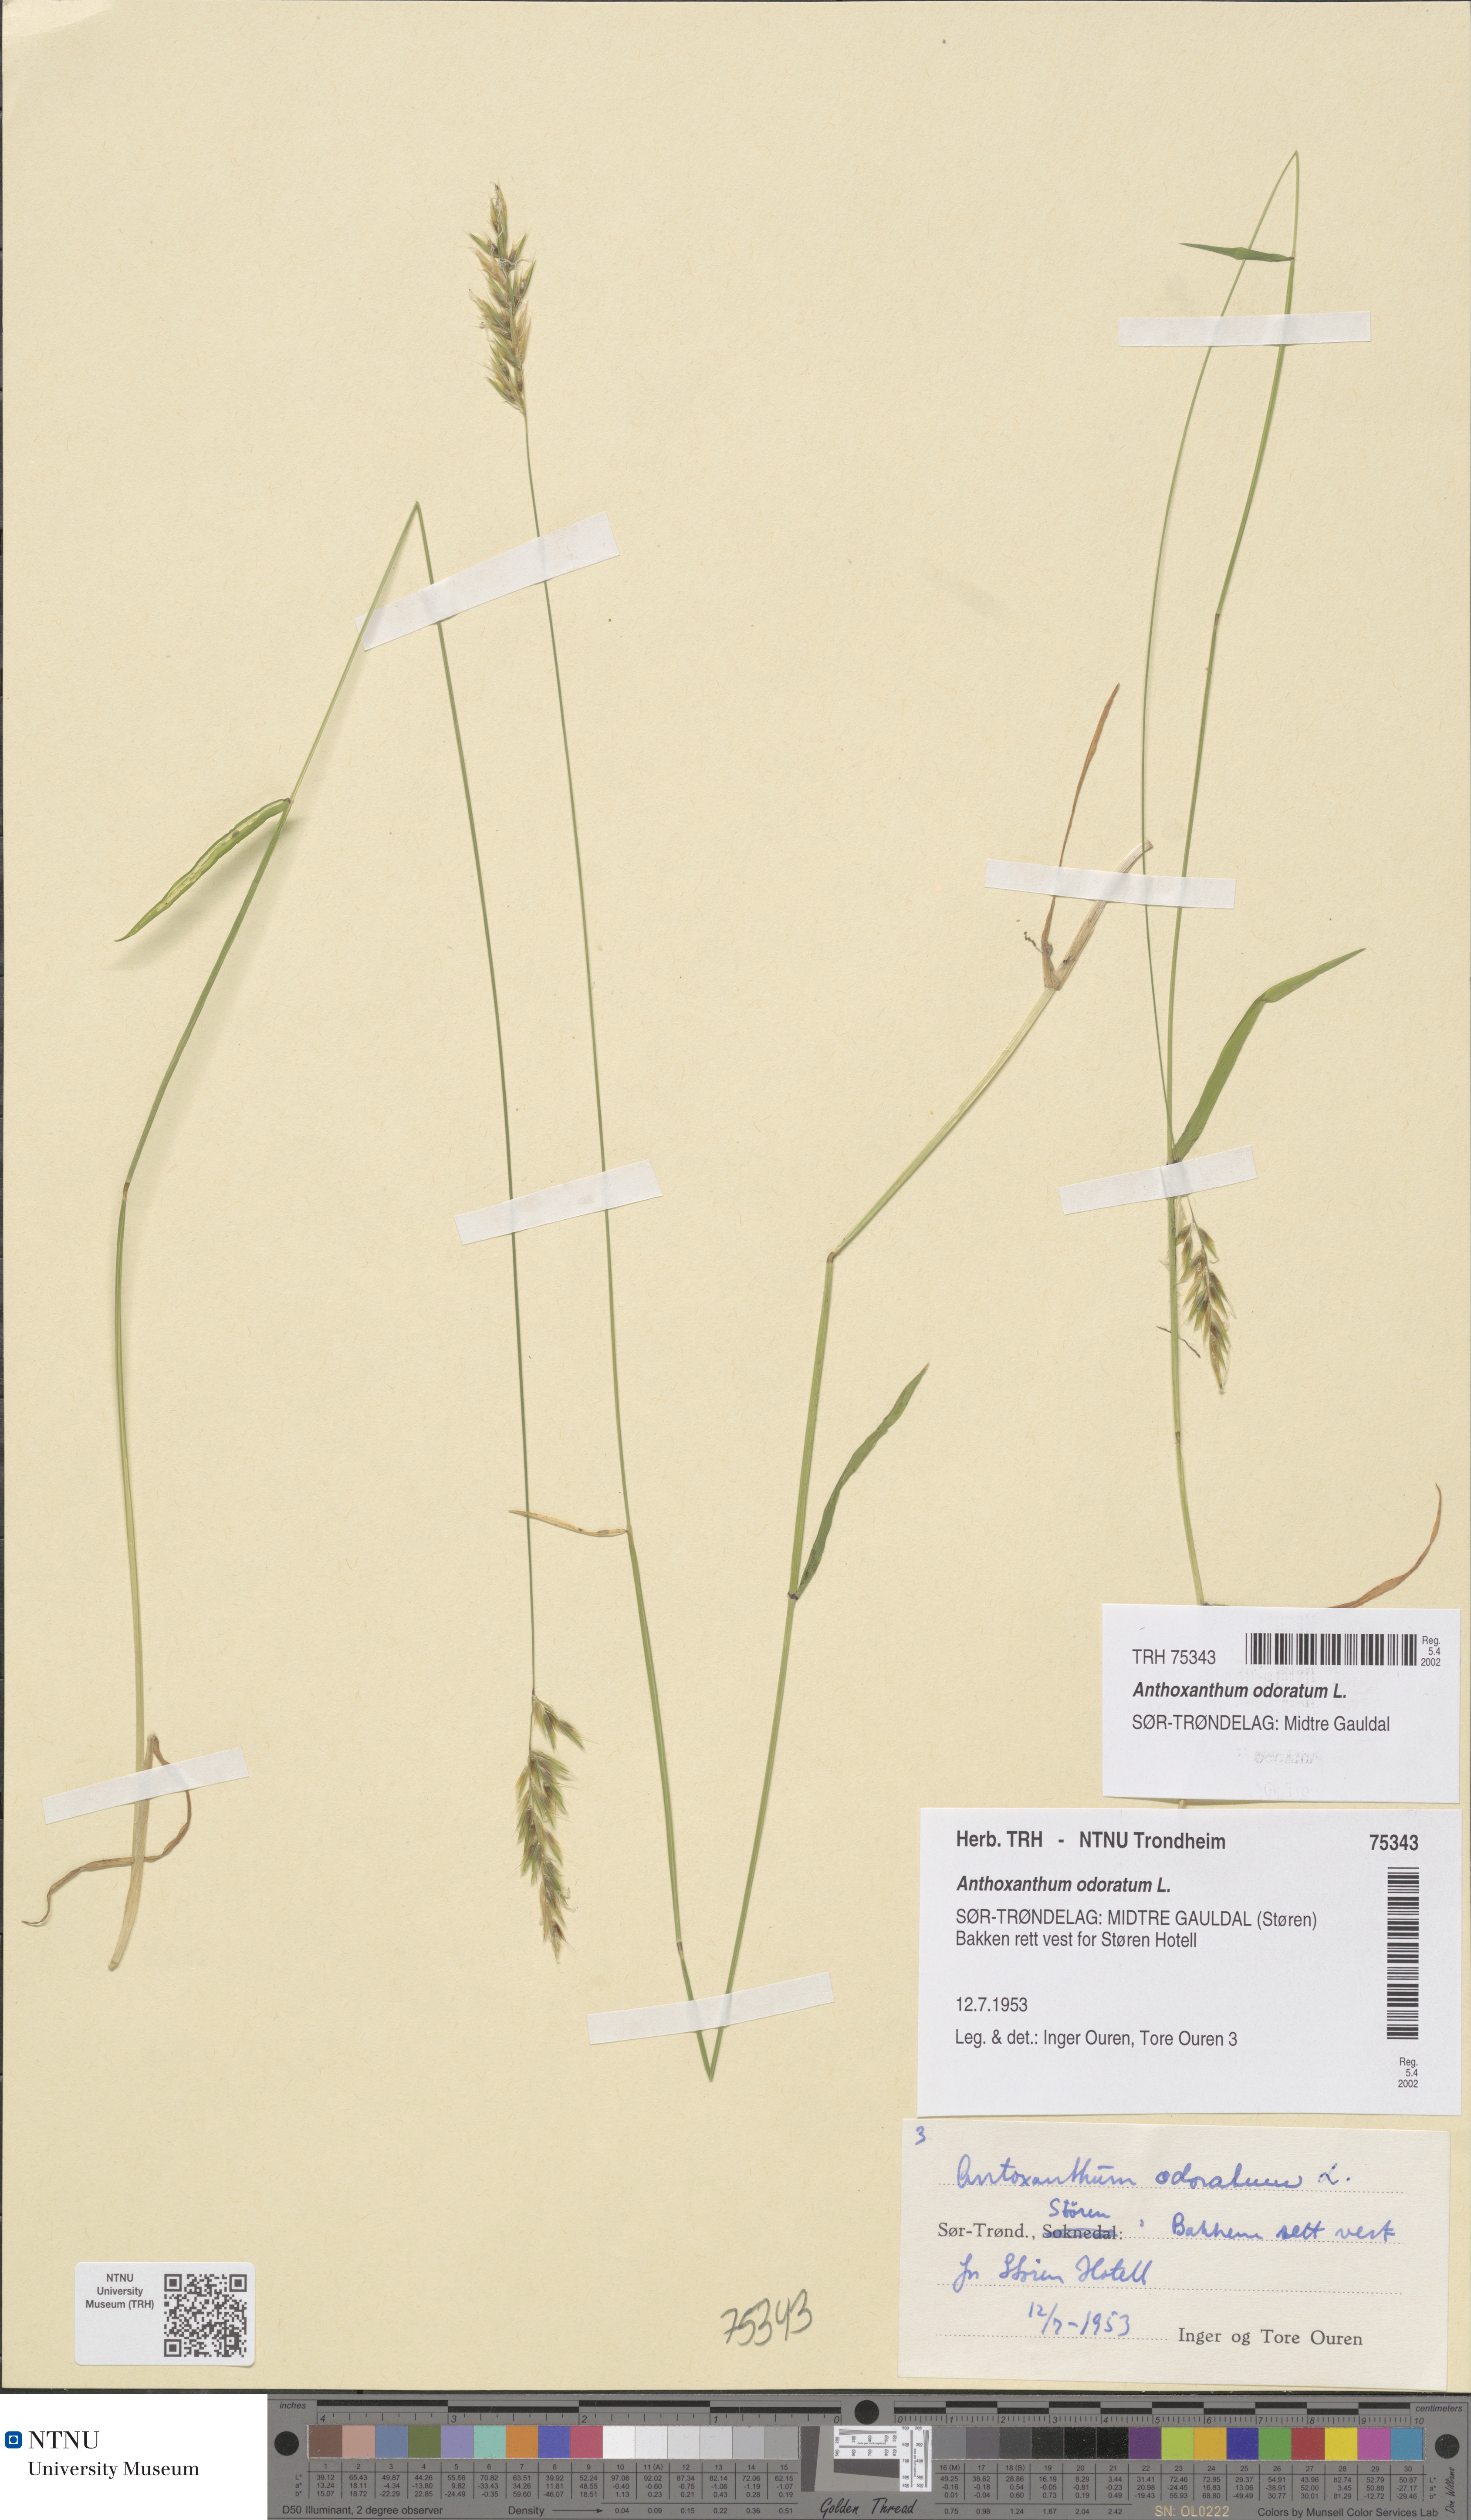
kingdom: Plantae
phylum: Tracheophyta
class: Liliopsida
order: Poales
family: Poaceae
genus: Anthoxanthum
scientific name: Anthoxanthum odoratum
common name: Sweet vernalgrass
